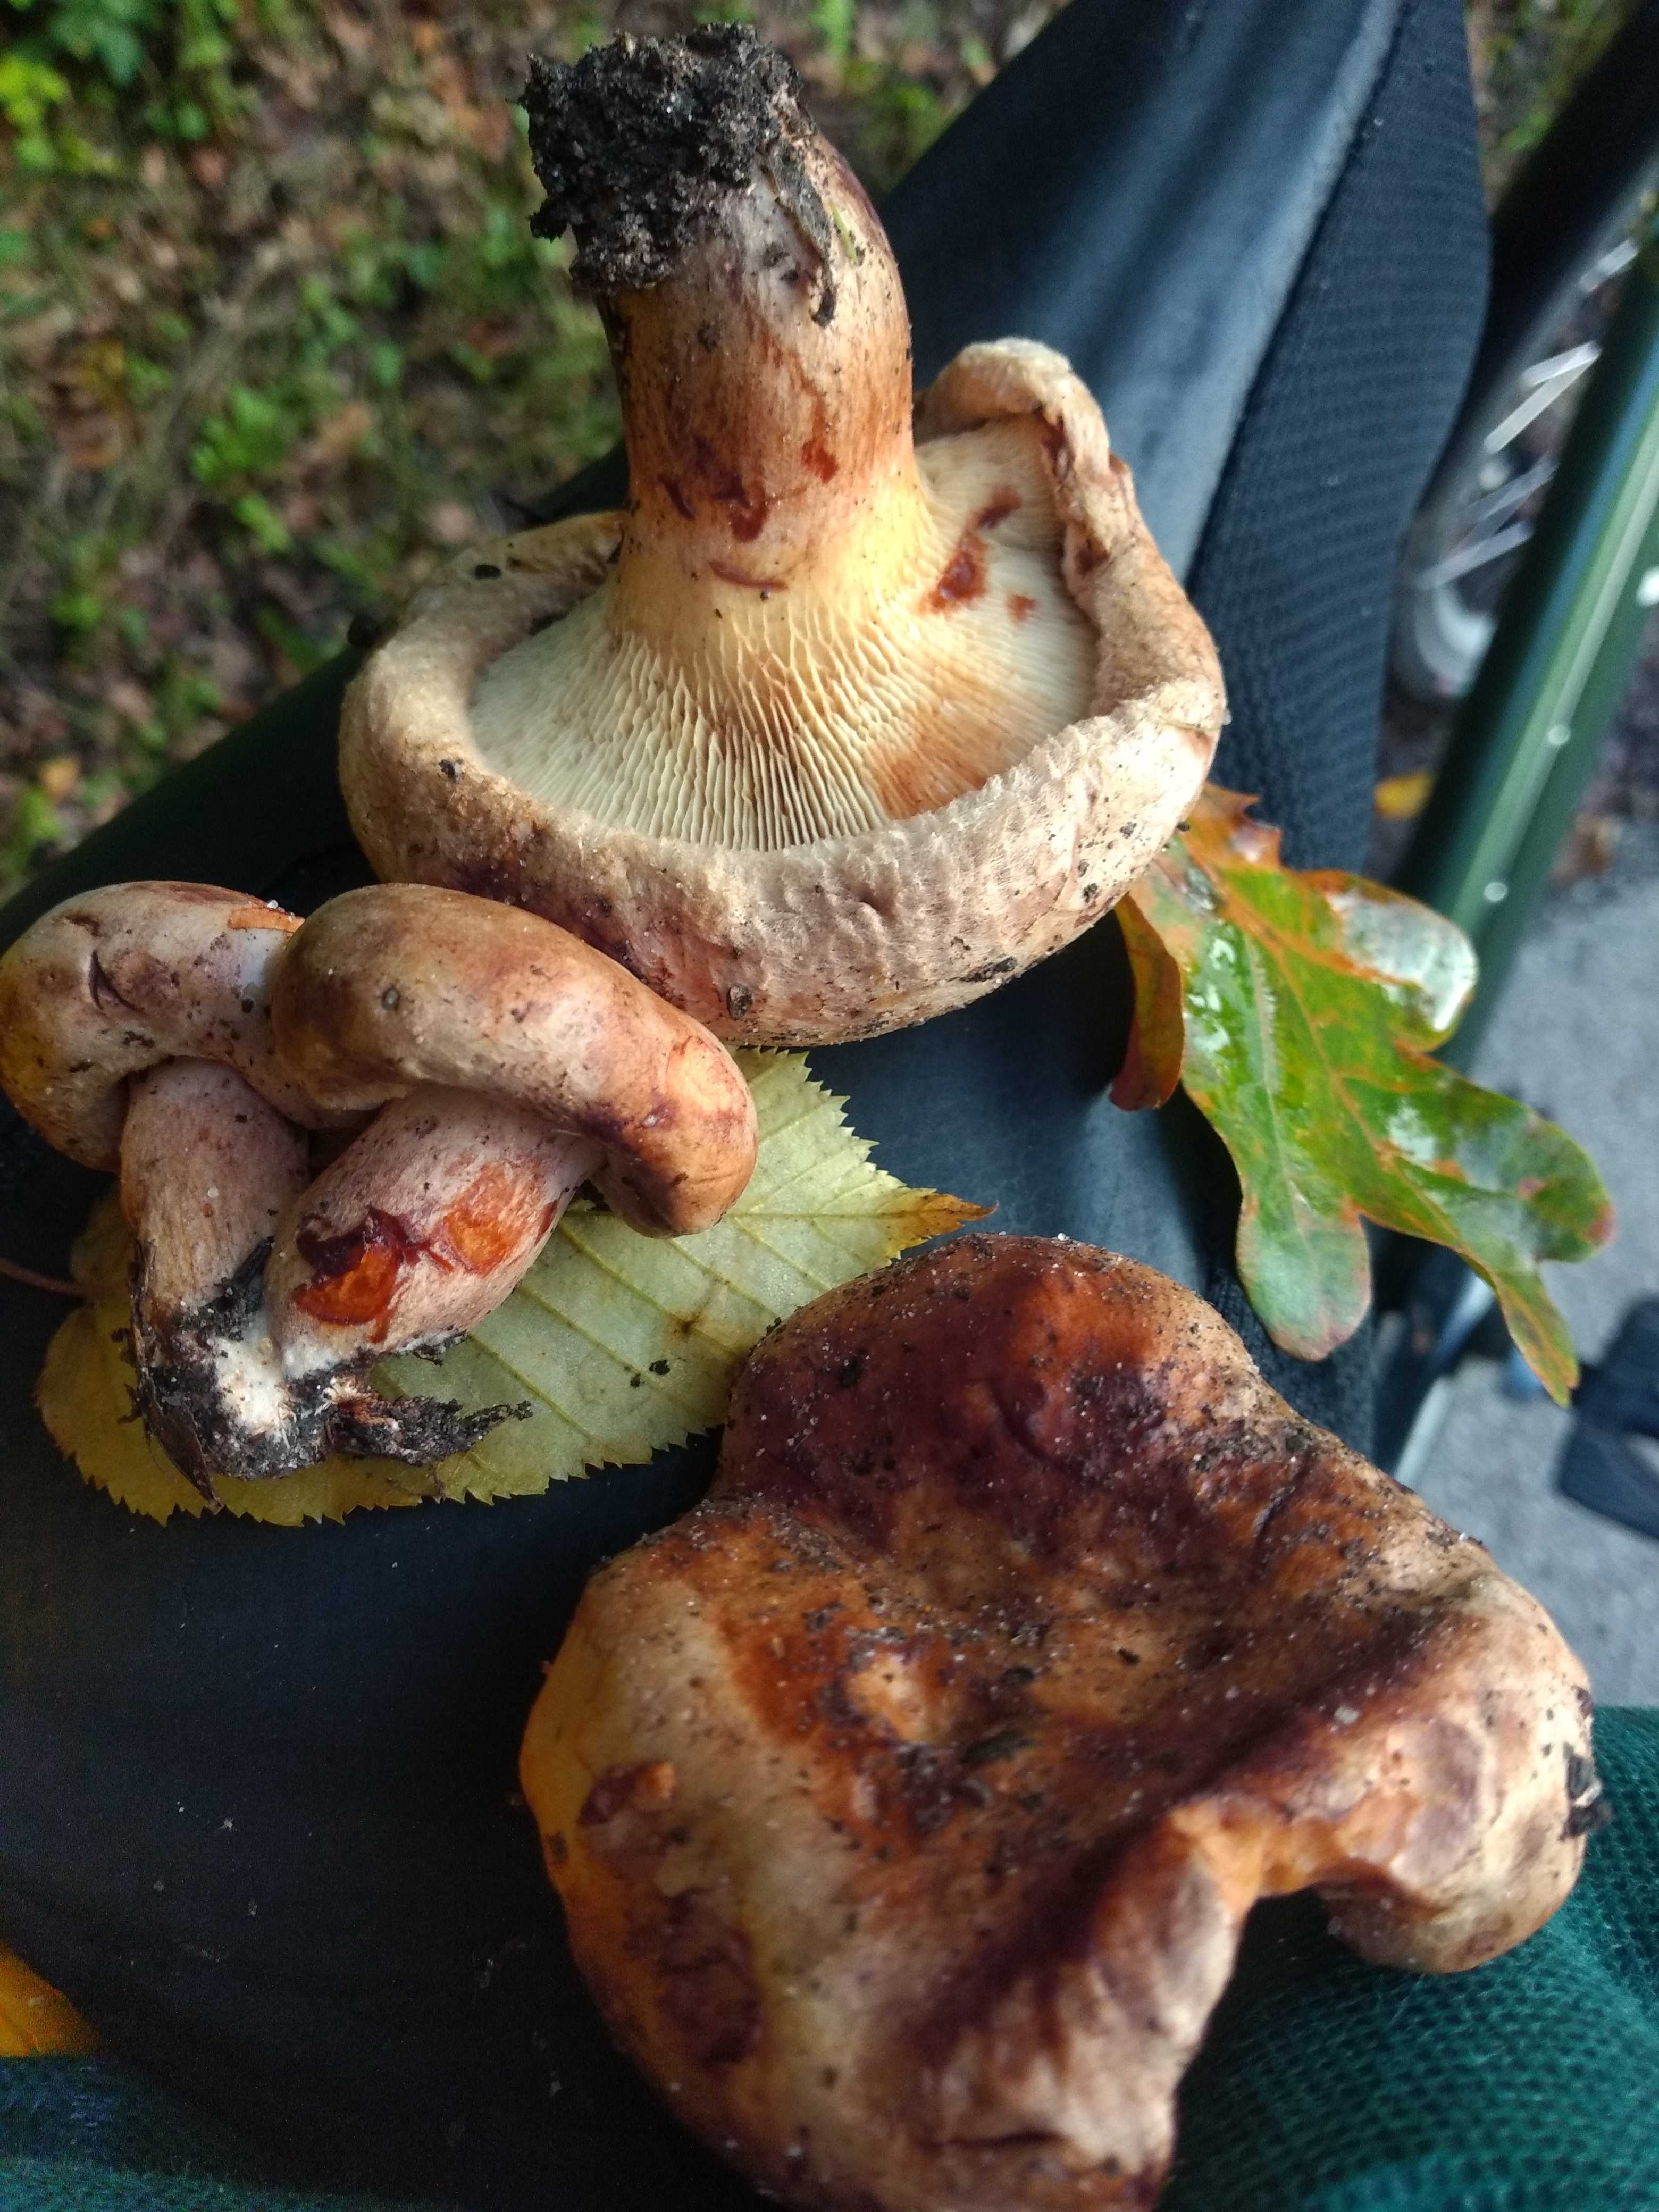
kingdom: Fungi
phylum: Basidiomycota
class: Agaricomycetes
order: Boletales
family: Paxillaceae
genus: Paxillus
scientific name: Paxillus
